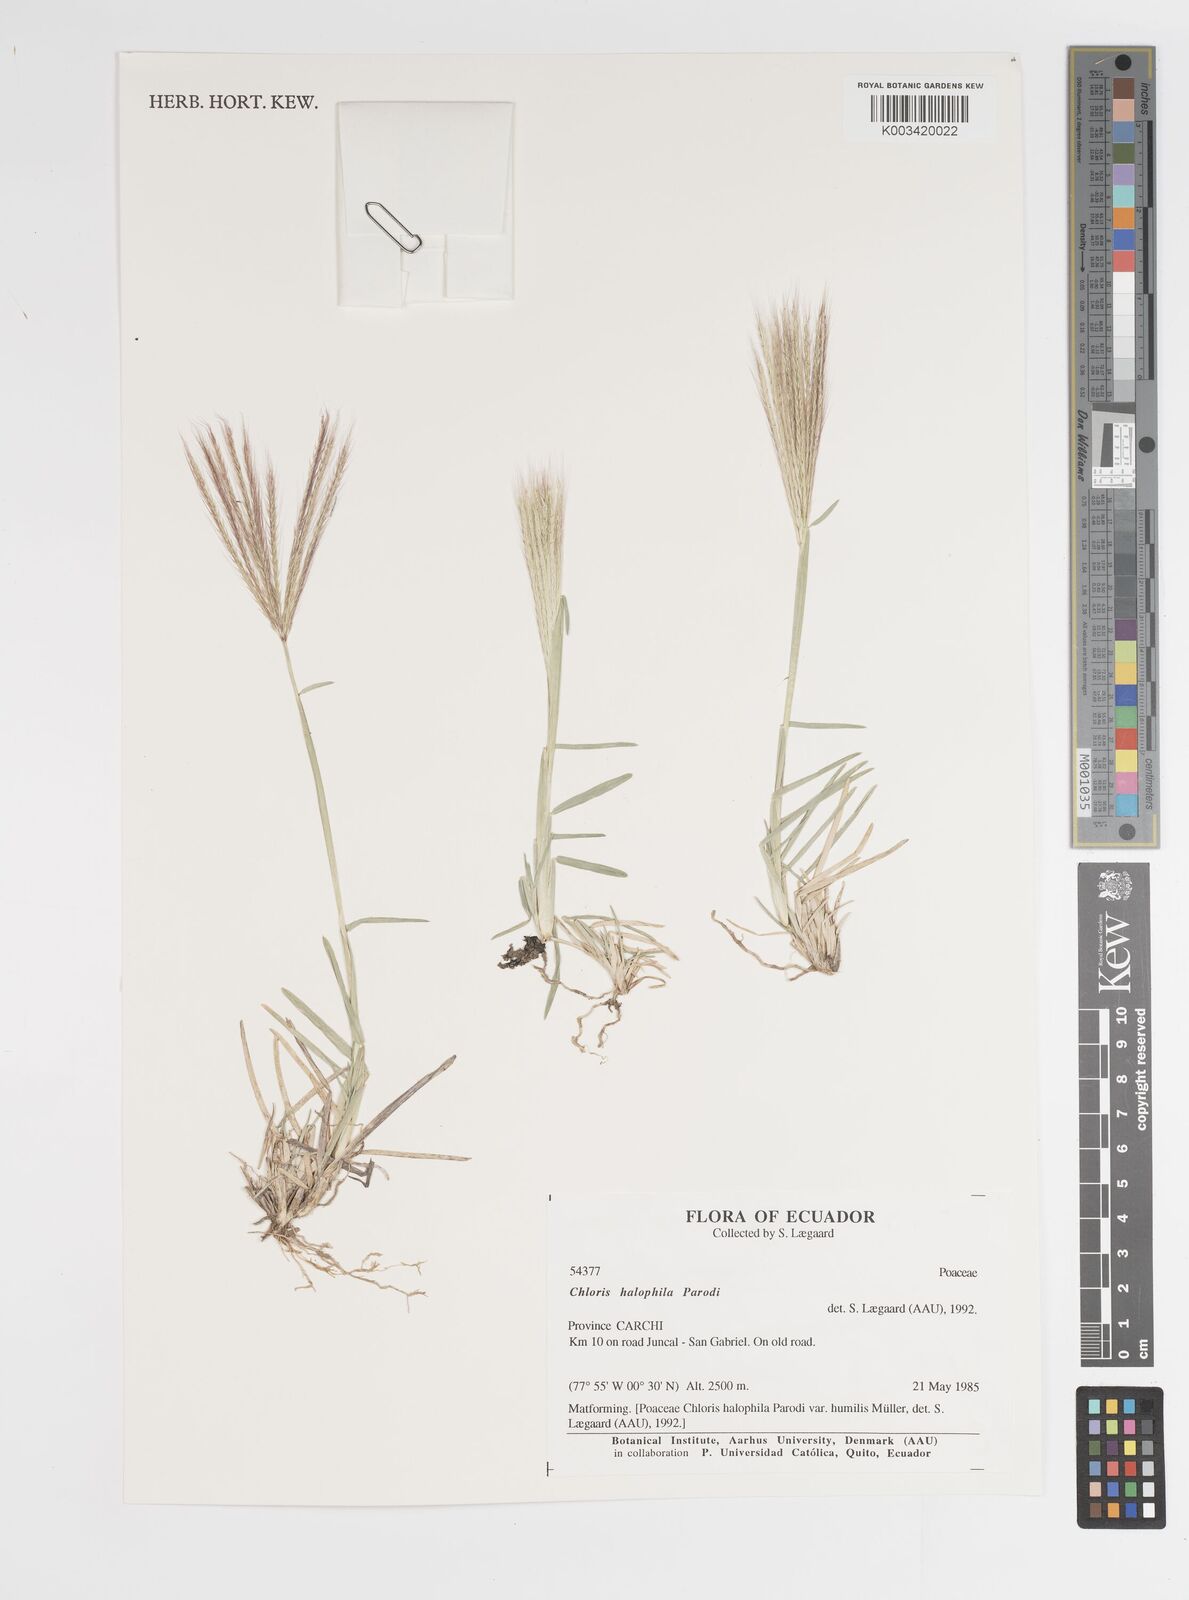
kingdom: Plantae
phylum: Tracheophyta
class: Liliopsida
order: Poales
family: Poaceae
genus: Chloris
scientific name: Chloris halophila
